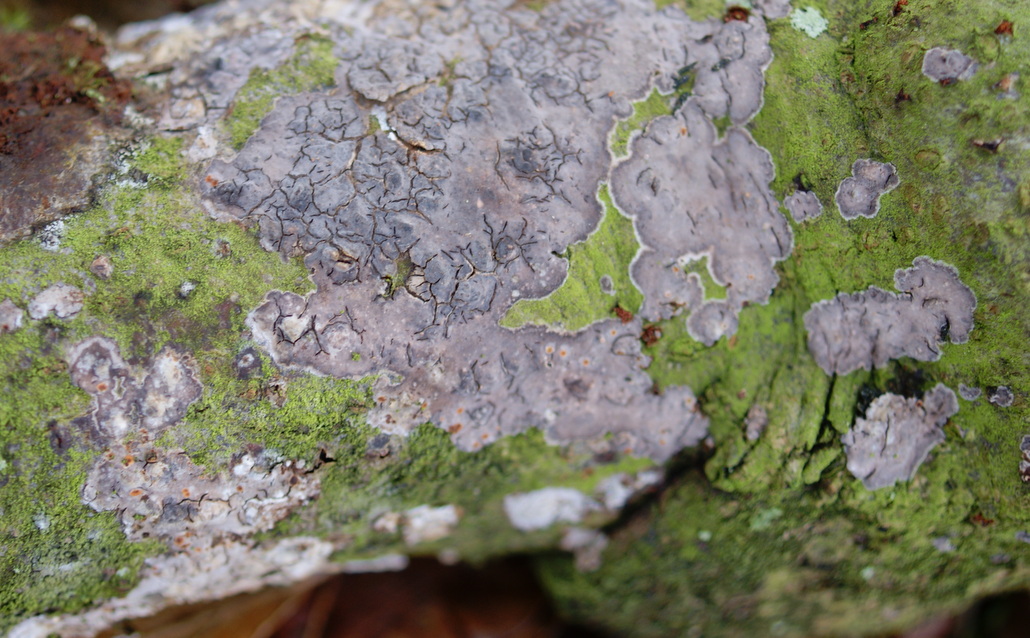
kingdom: Fungi
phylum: Basidiomycota
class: Tremellomycetes
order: Tremellales
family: Tremellaceae
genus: Tremella
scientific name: Tremella versicolor
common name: voksskind-bævresvamp
